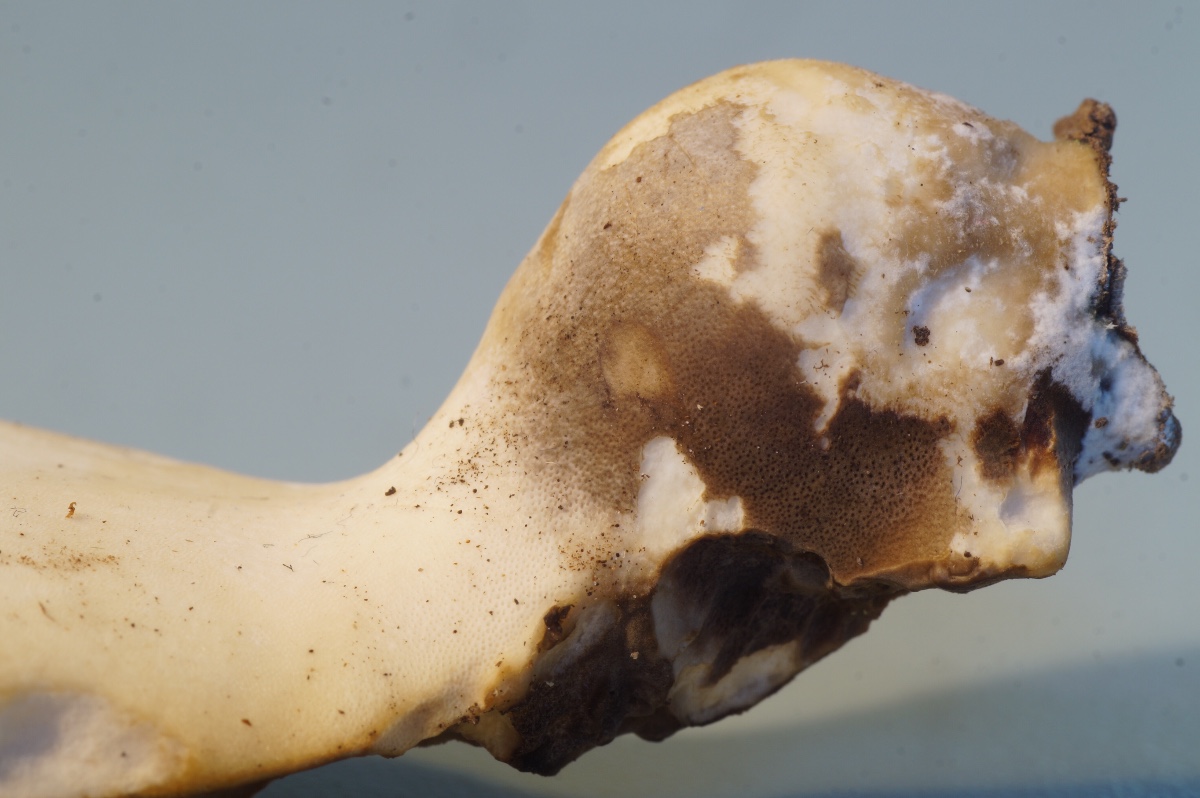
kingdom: Fungi
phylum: Basidiomycota
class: Agaricomycetes
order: Polyporales
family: Polyporaceae
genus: Picipes
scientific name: Picipes badius
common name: kastaniebrun stilkporesvamp
